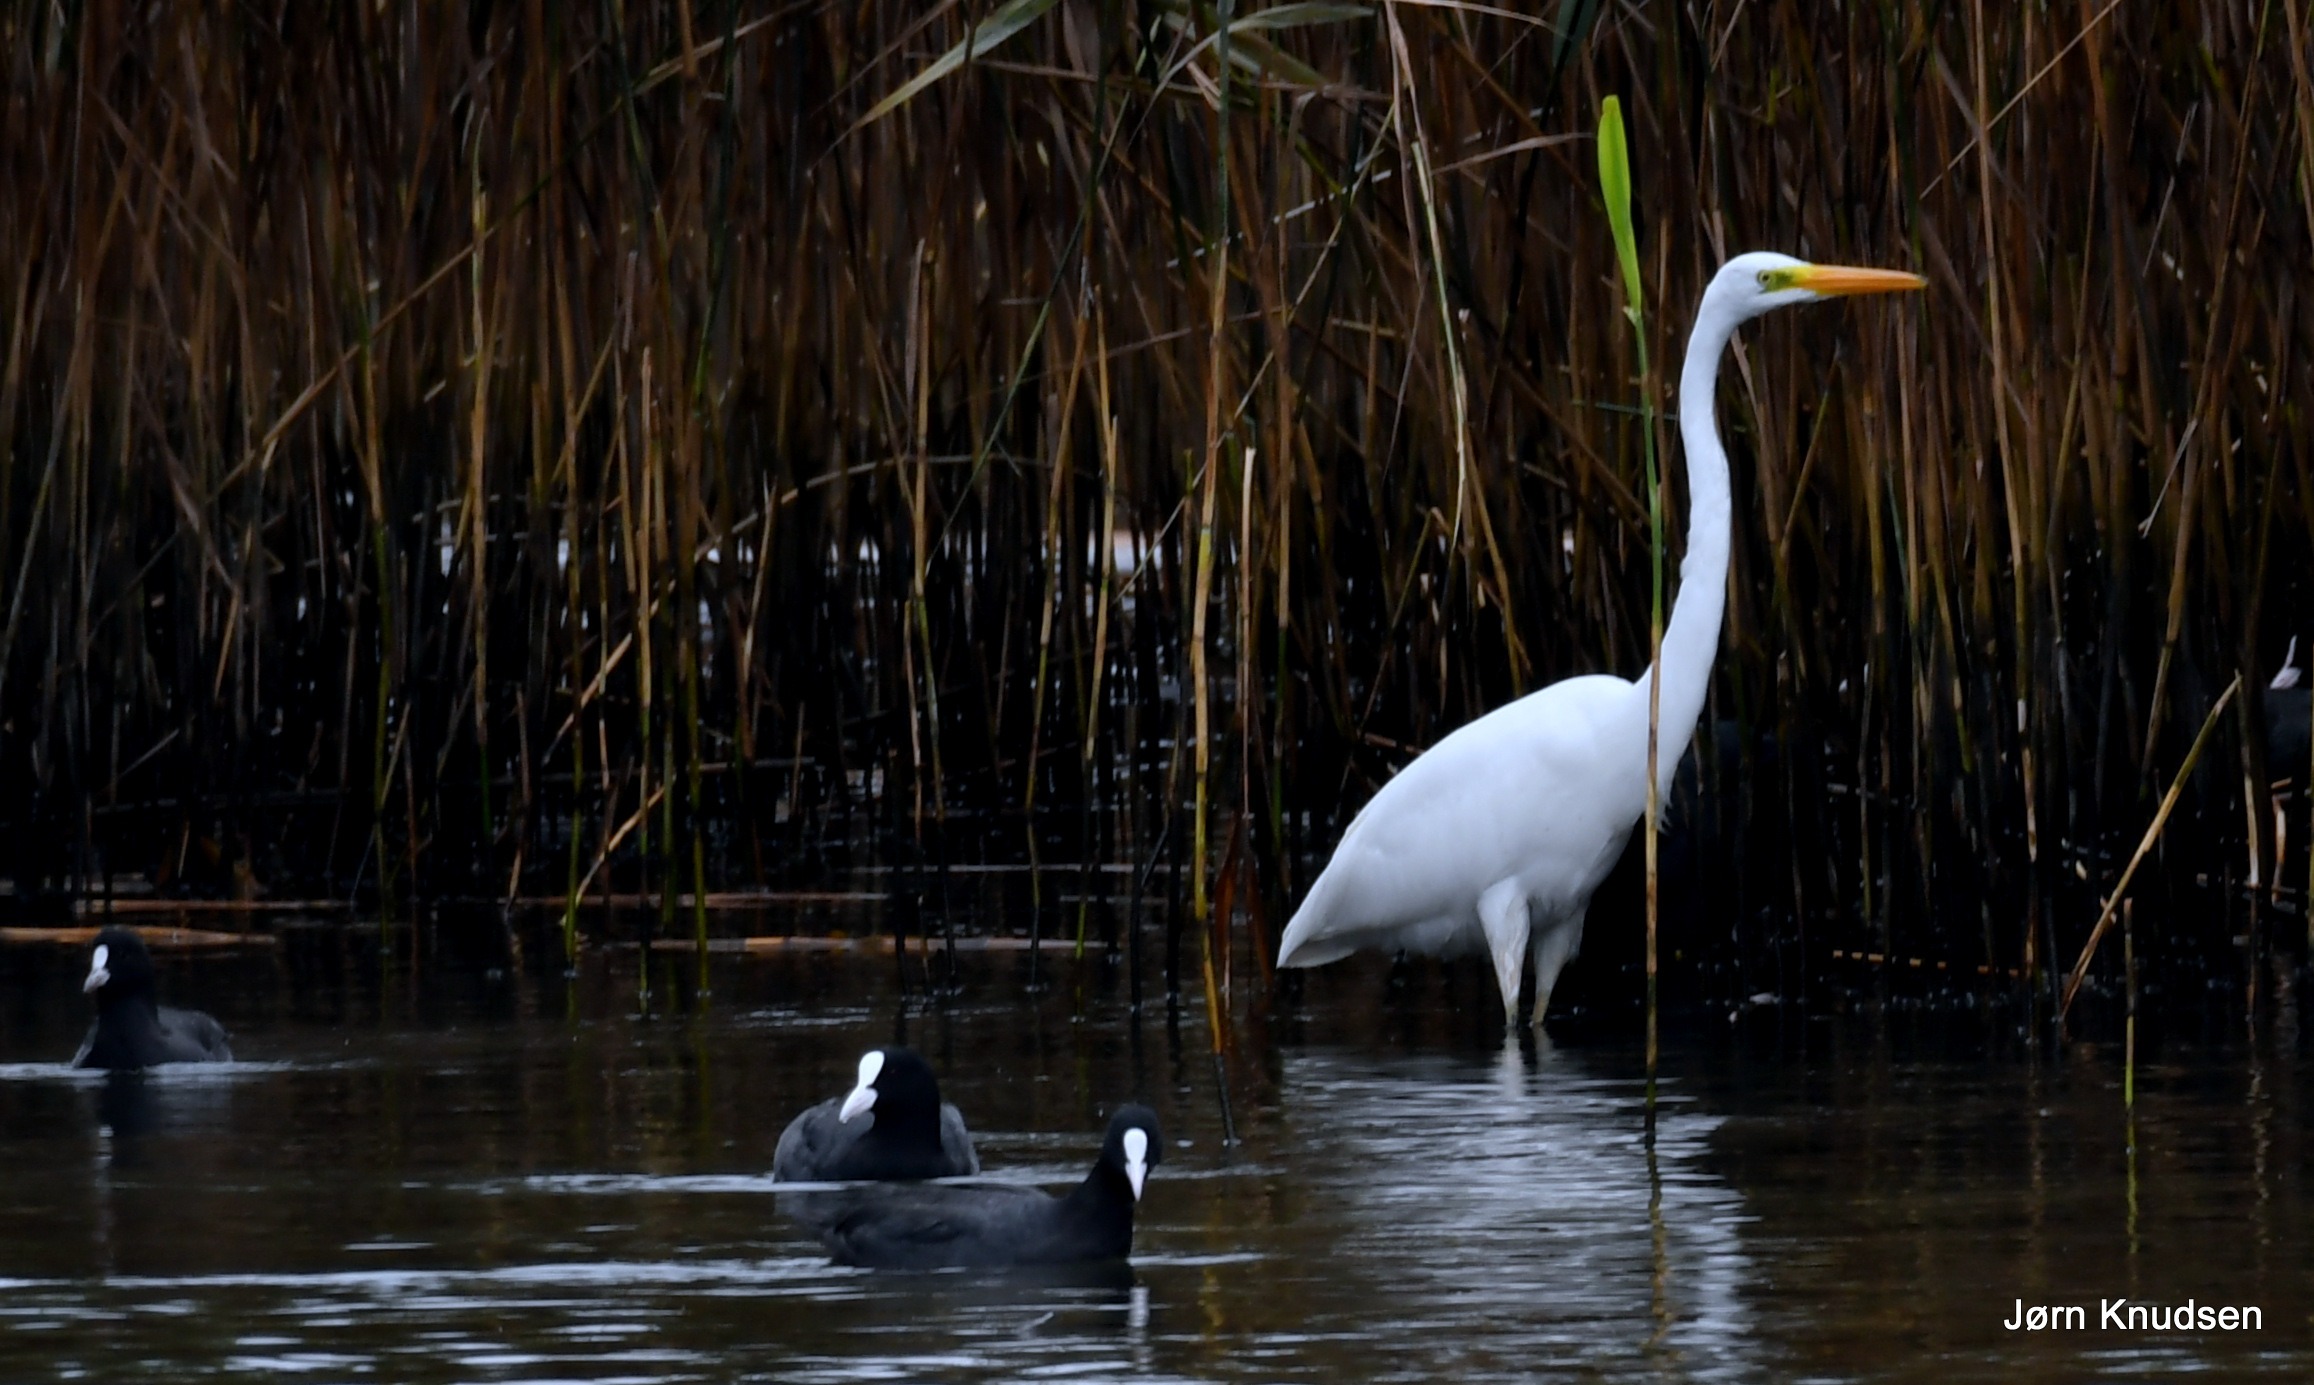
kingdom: Animalia
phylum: Chordata
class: Aves
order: Pelecaniformes
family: Ardeidae
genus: Ardea
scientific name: Ardea alba
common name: Sølvhejre
